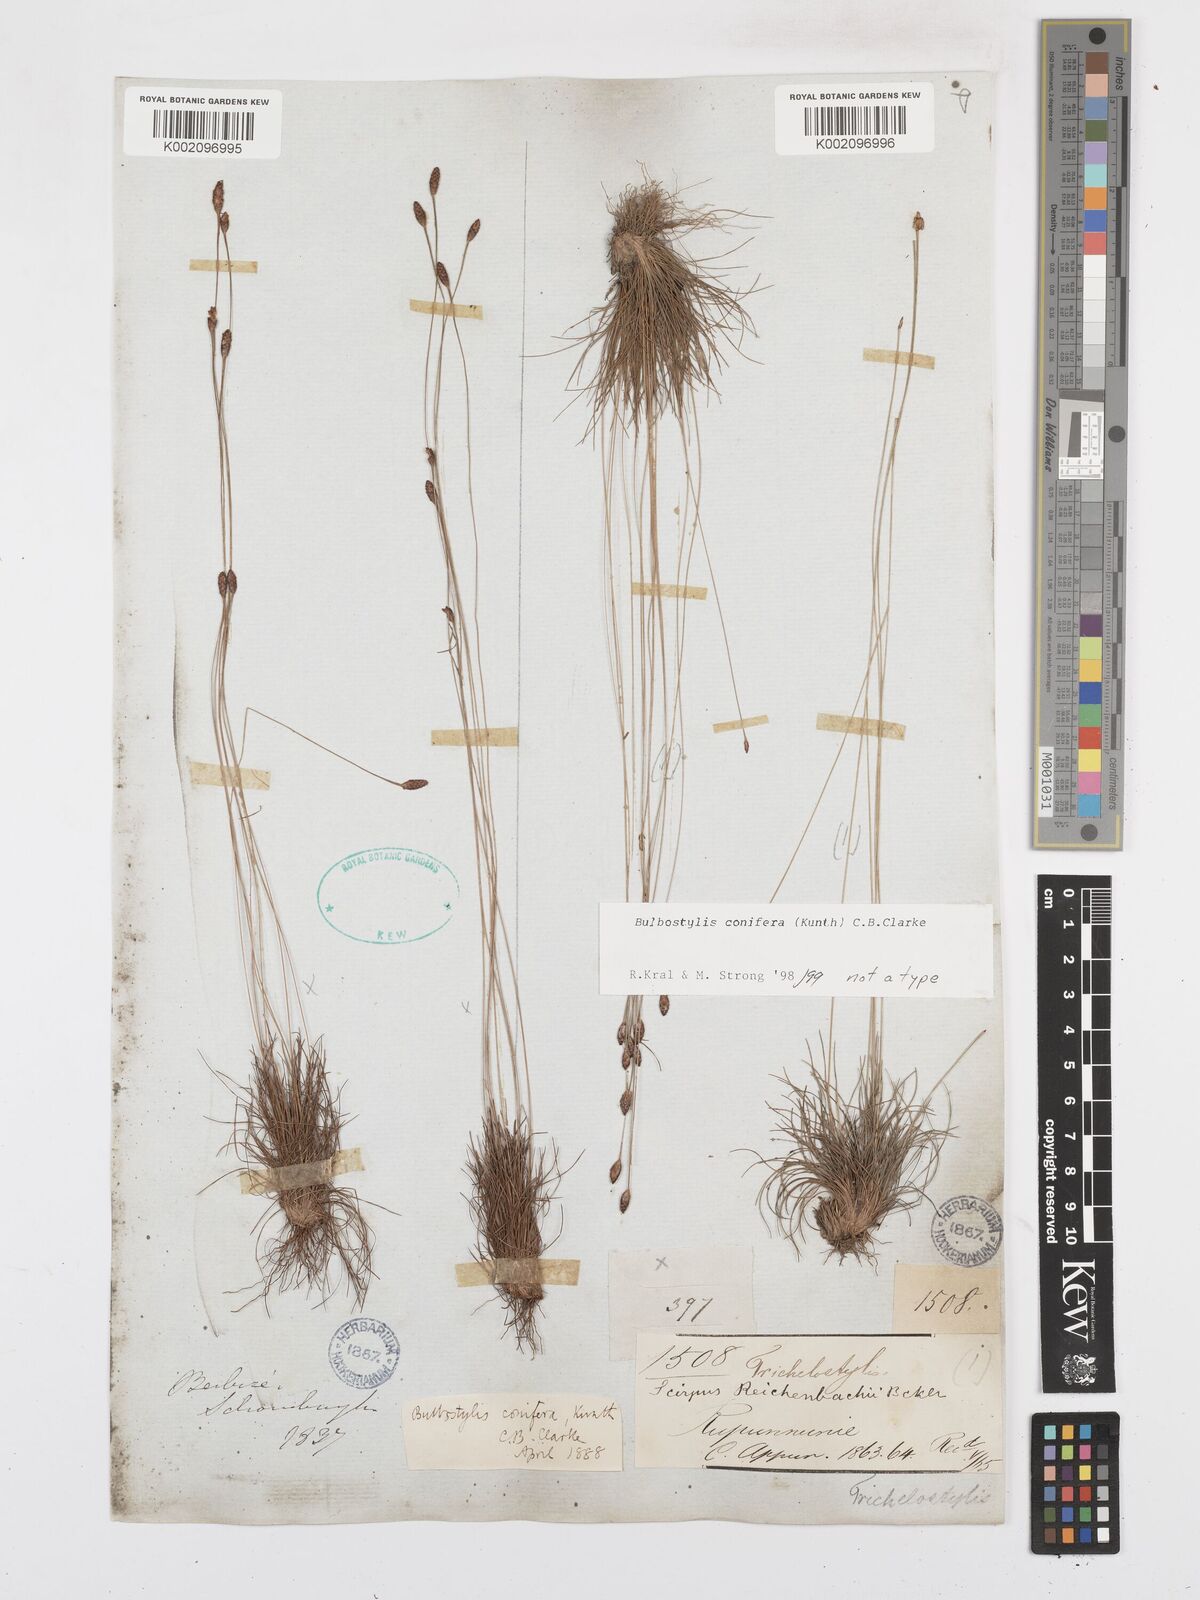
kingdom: Plantae
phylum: Tracheophyta
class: Liliopsida
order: Poales
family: Cyperaceae
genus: Bulbostylis
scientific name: Bulbostylis conifera
